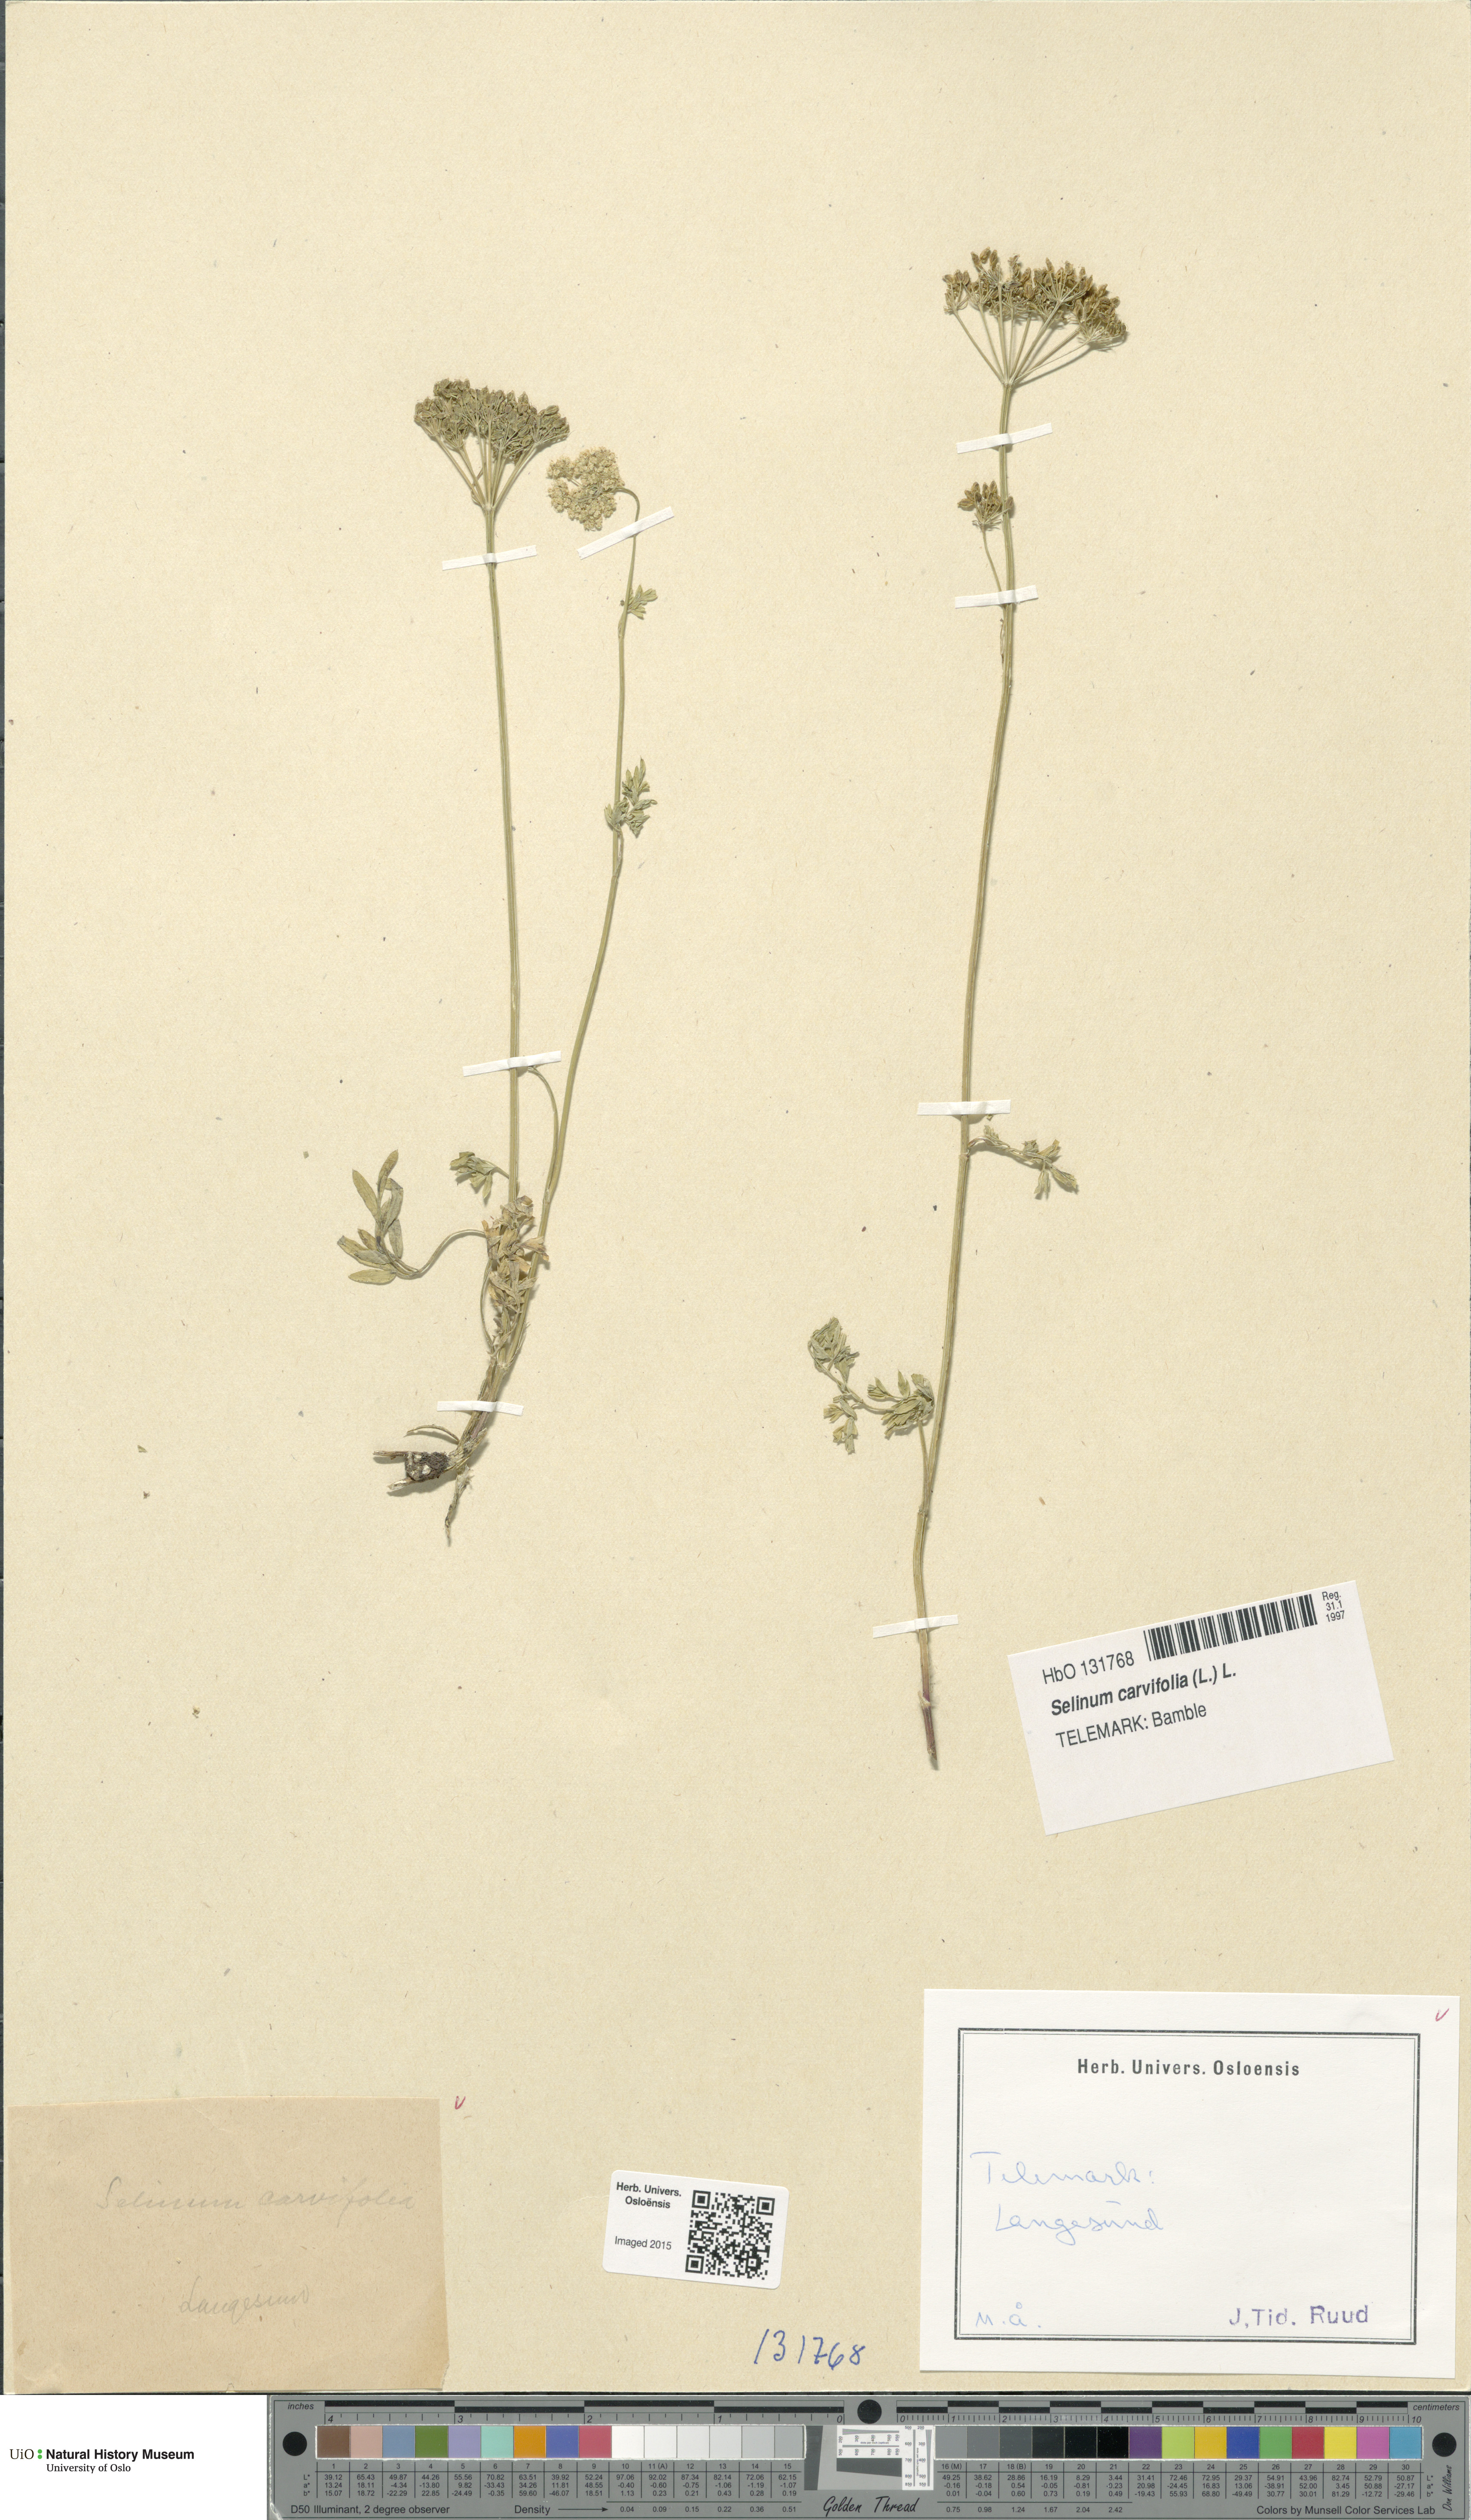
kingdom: Plantae
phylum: Tracheophyta
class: Magnoliopsida
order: Apiales
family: Apiaceae
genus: Selinum
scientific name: Selinum carvifolia
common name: Cambridge milk-parsley
